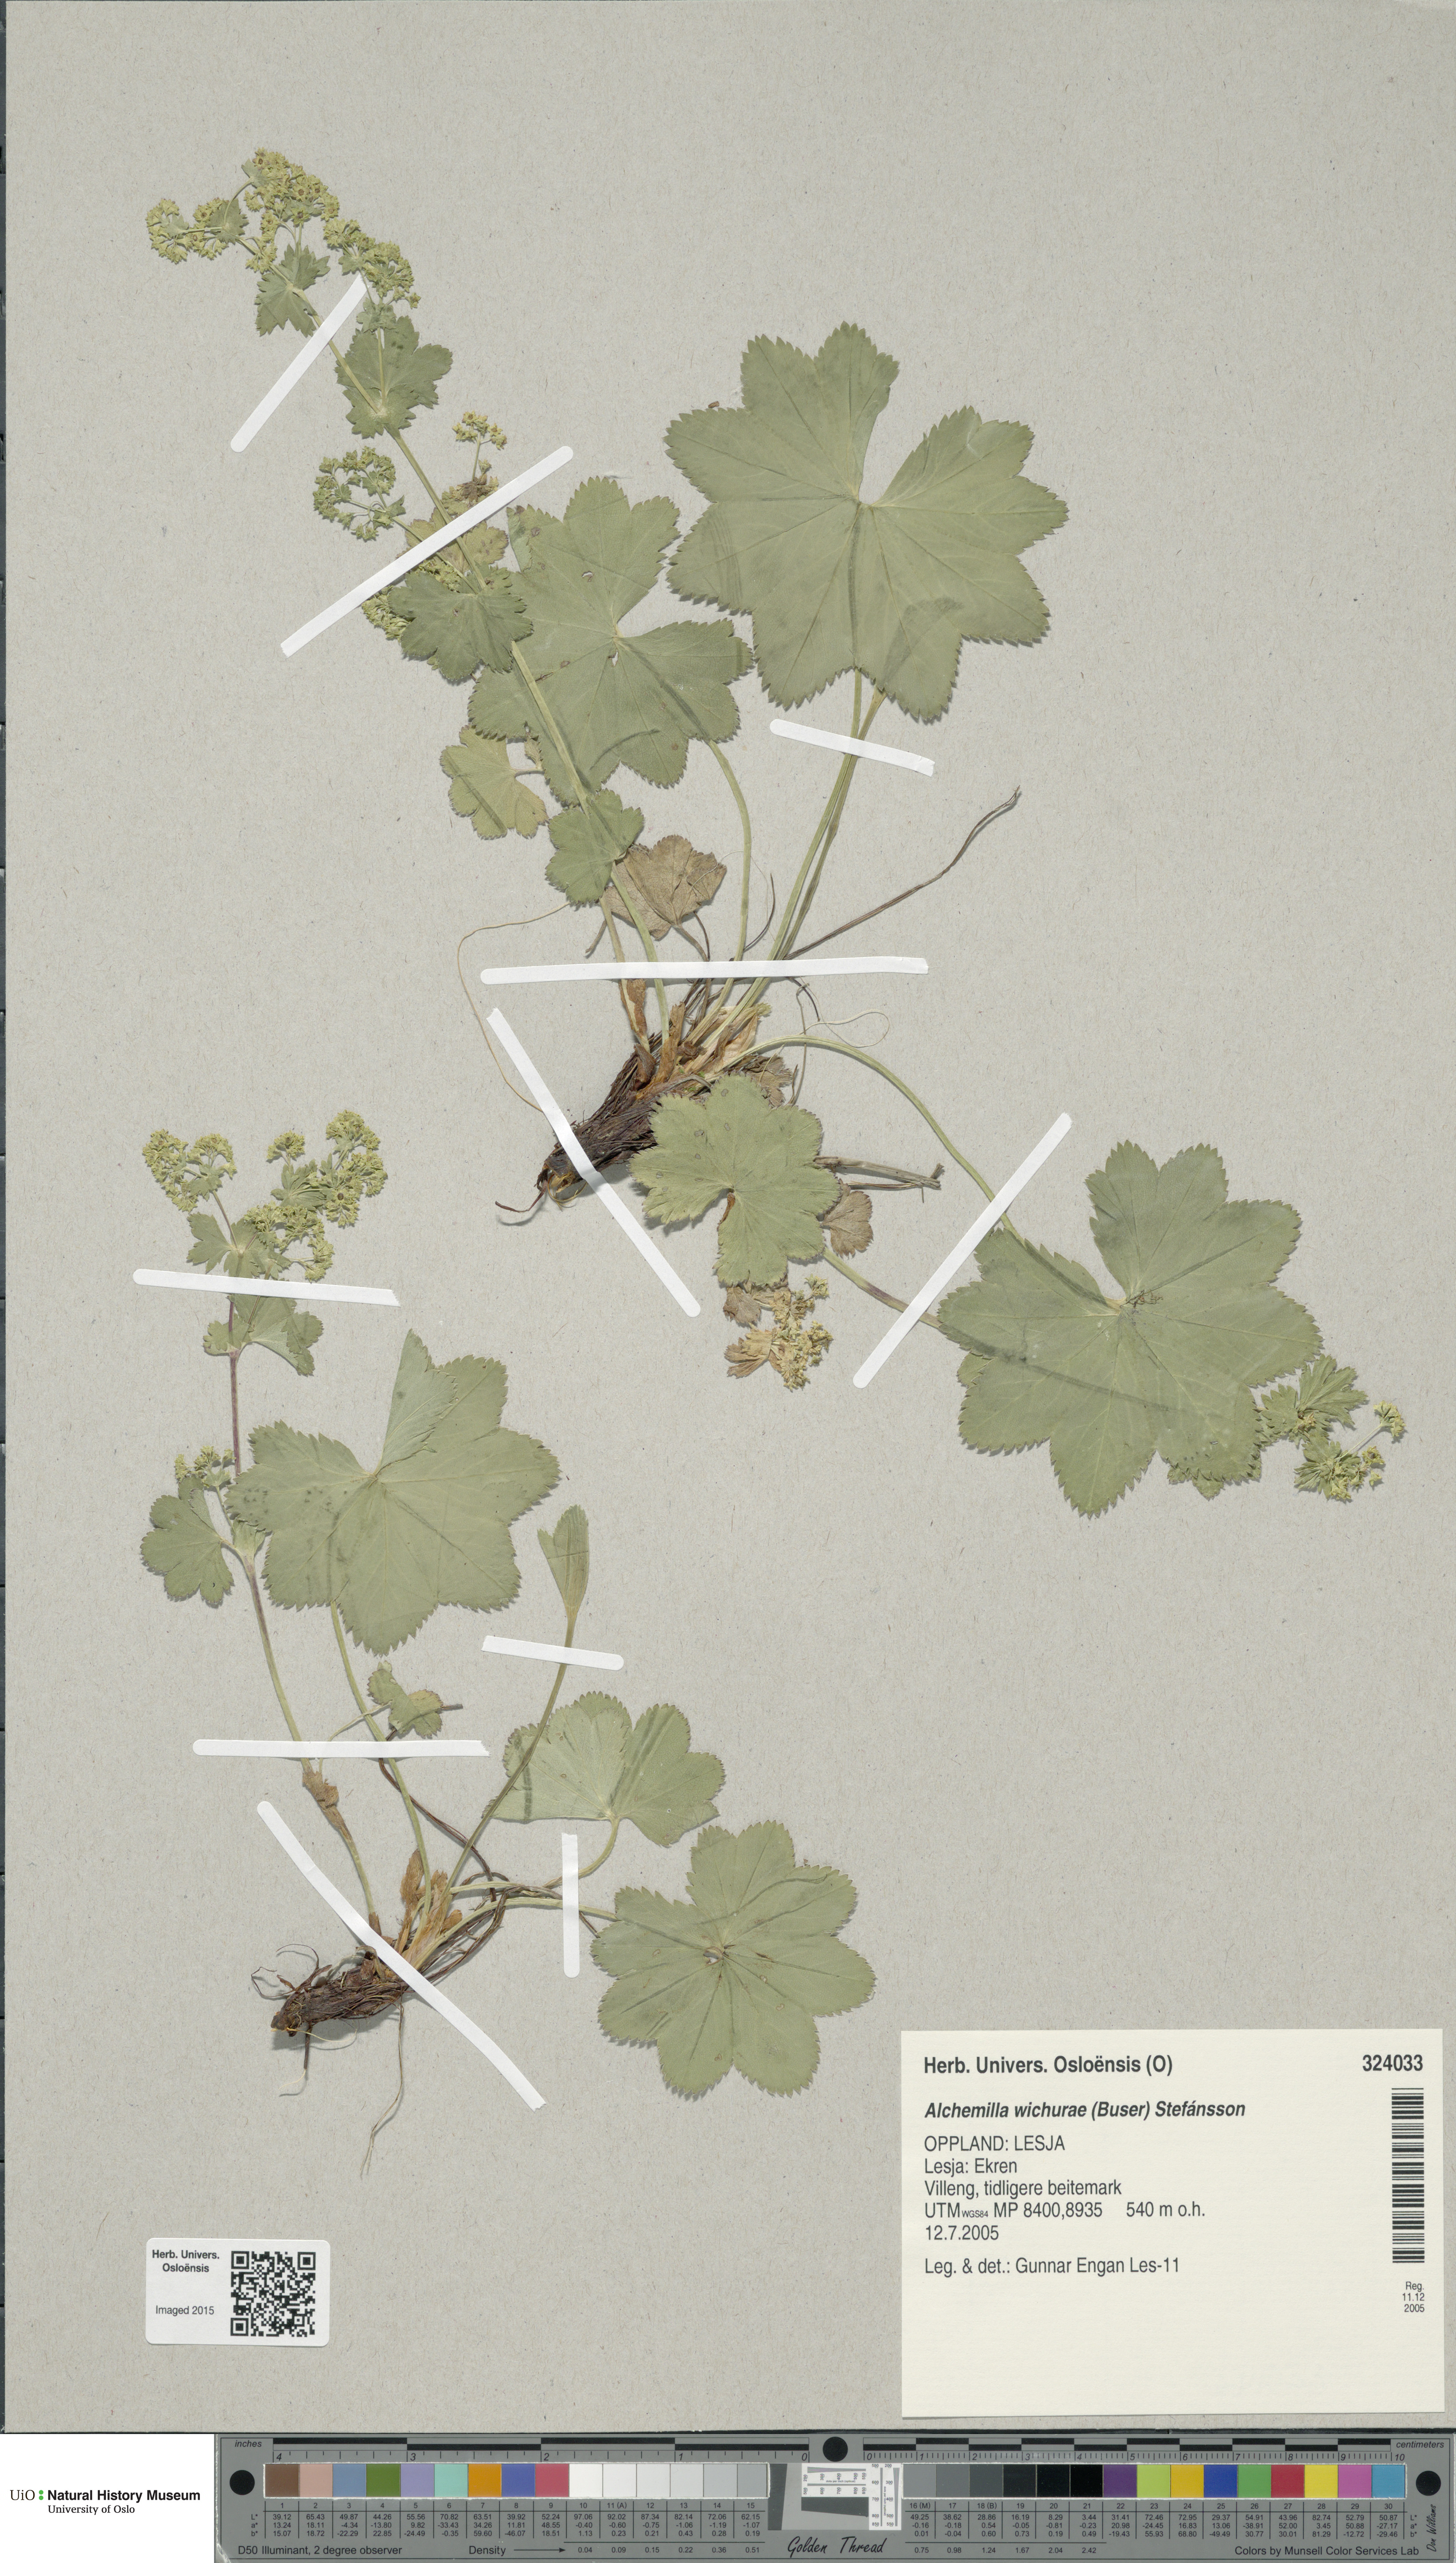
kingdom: Plantae
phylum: Tracheophyta
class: Magnoliopsida
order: Rosales
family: Rosaceae
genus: Alchemilla
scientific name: Alchemilla wichurae
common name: Rock lady's mantle
